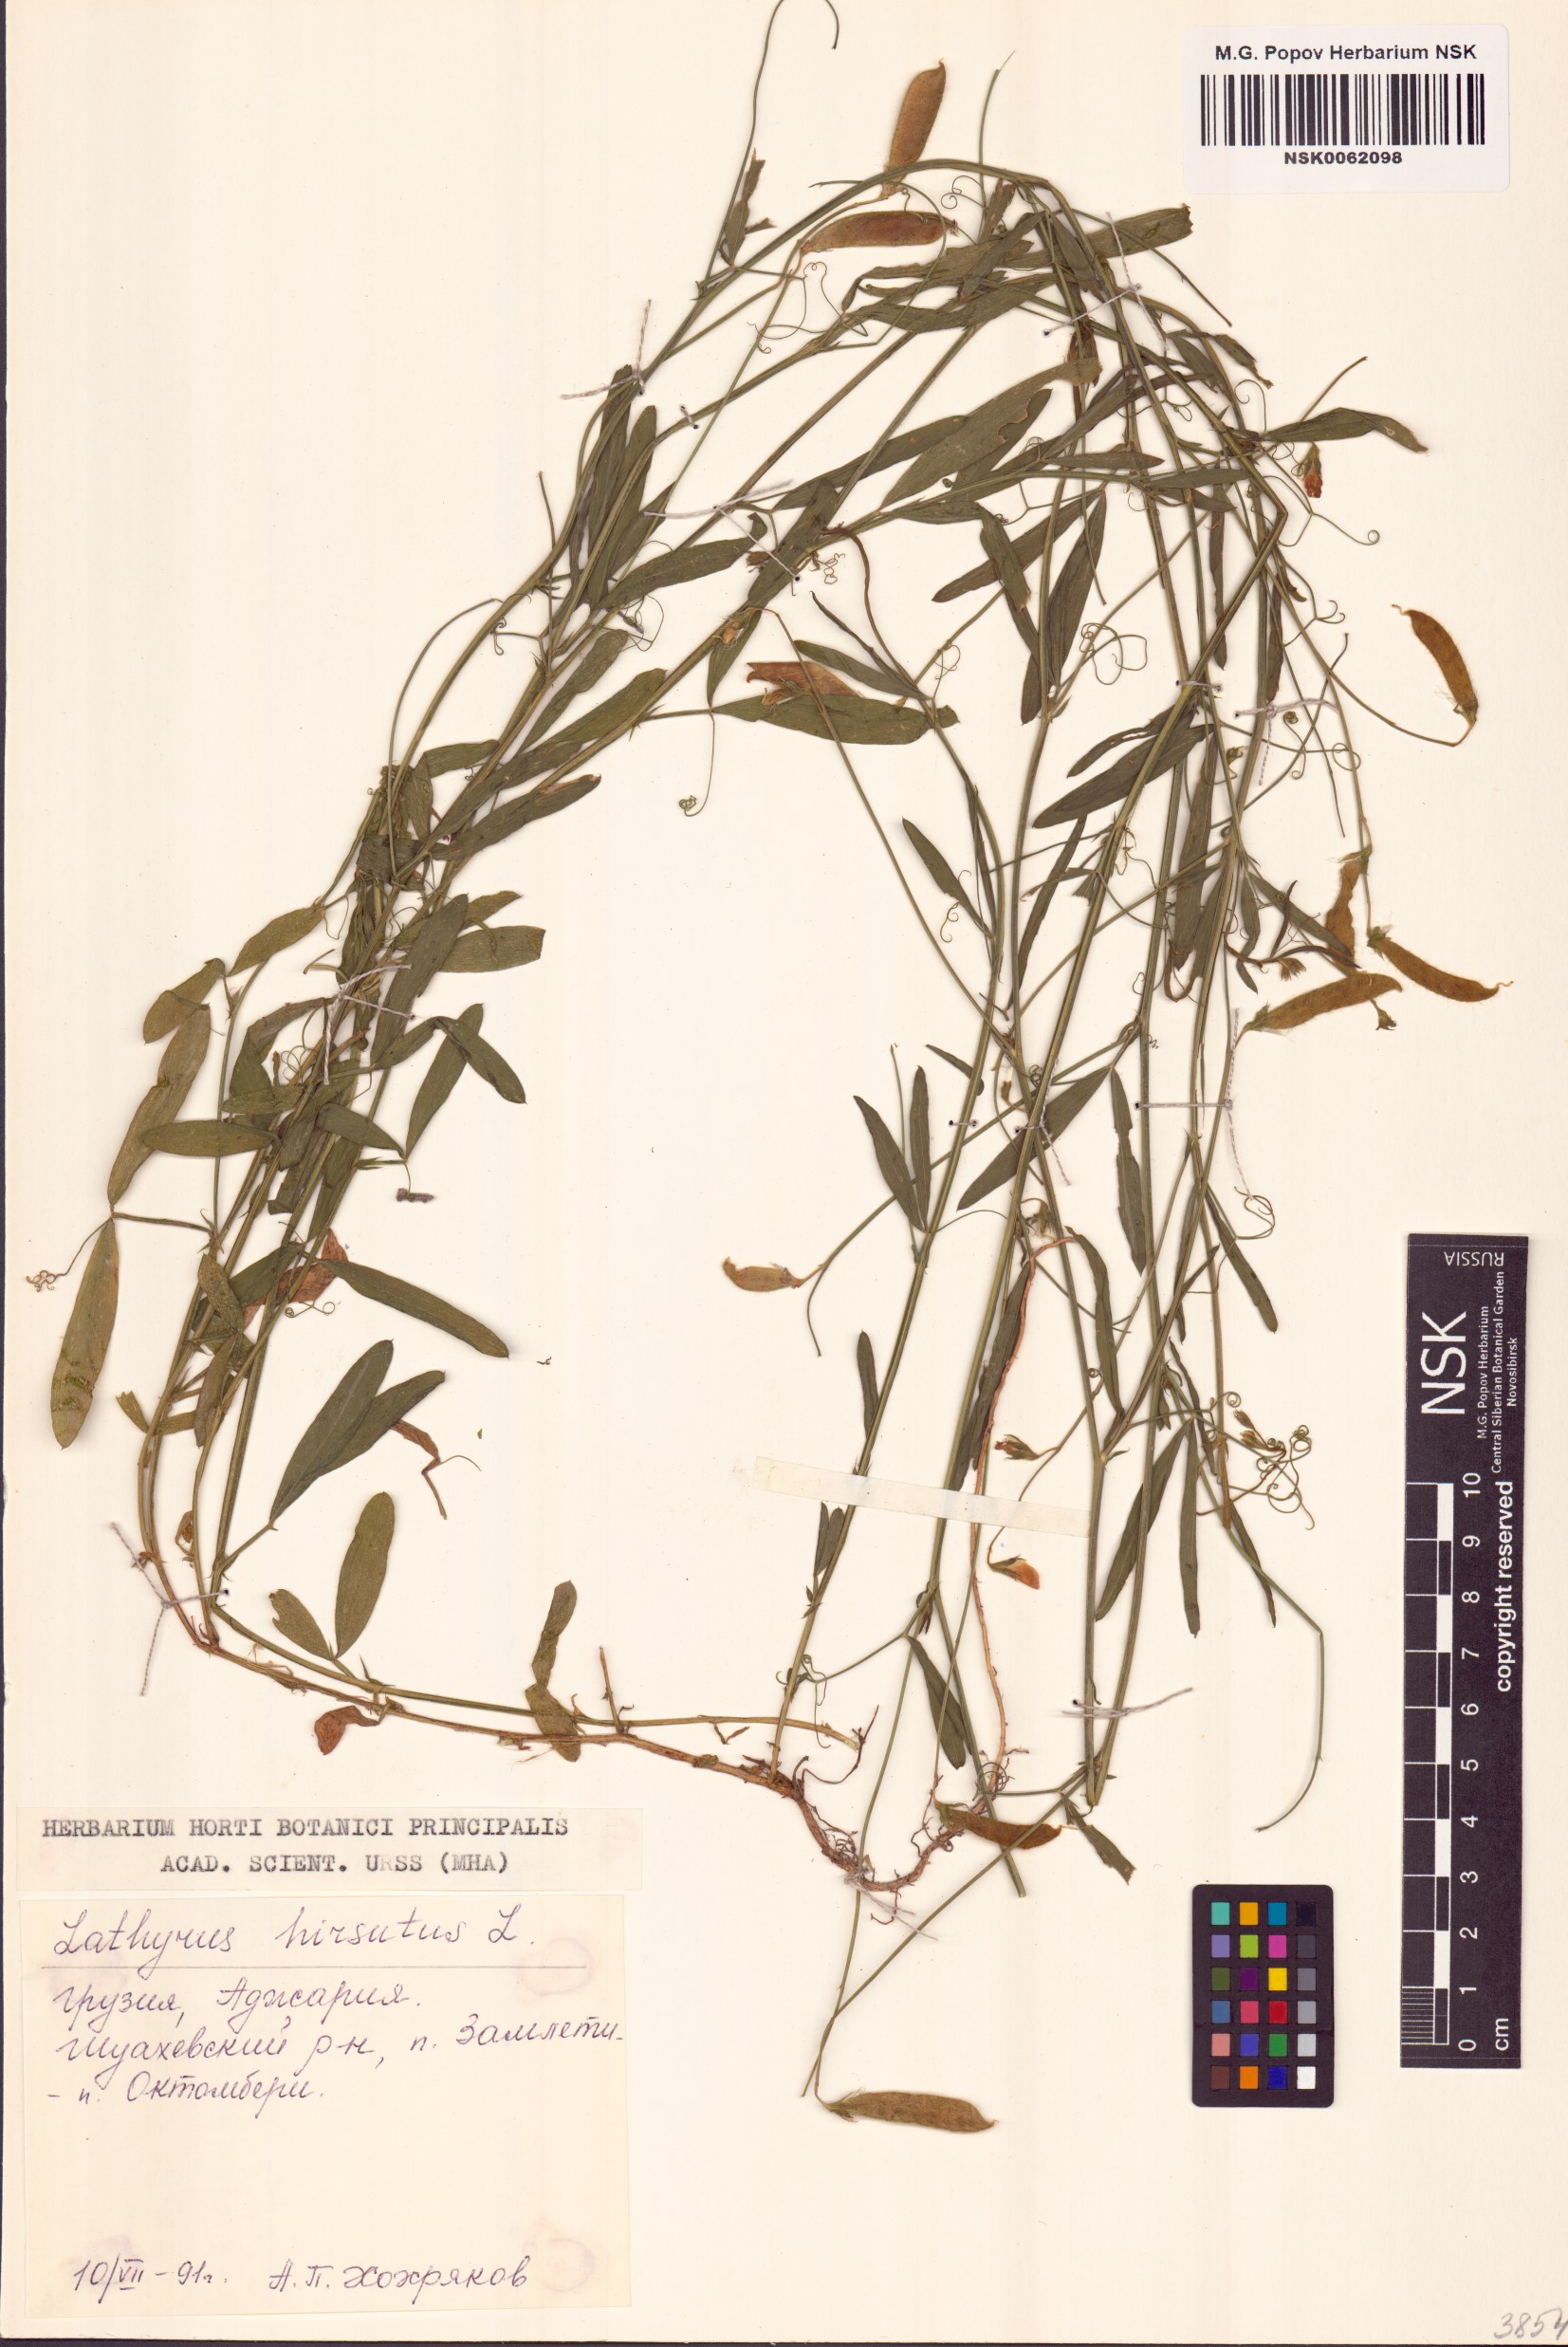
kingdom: Plantae
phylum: Tracheophyta
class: Magnoliopsida
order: Fabales
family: Fabaceae
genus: Lathyrus
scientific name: Lathyrus hirsutus
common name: Hairy vetchling
